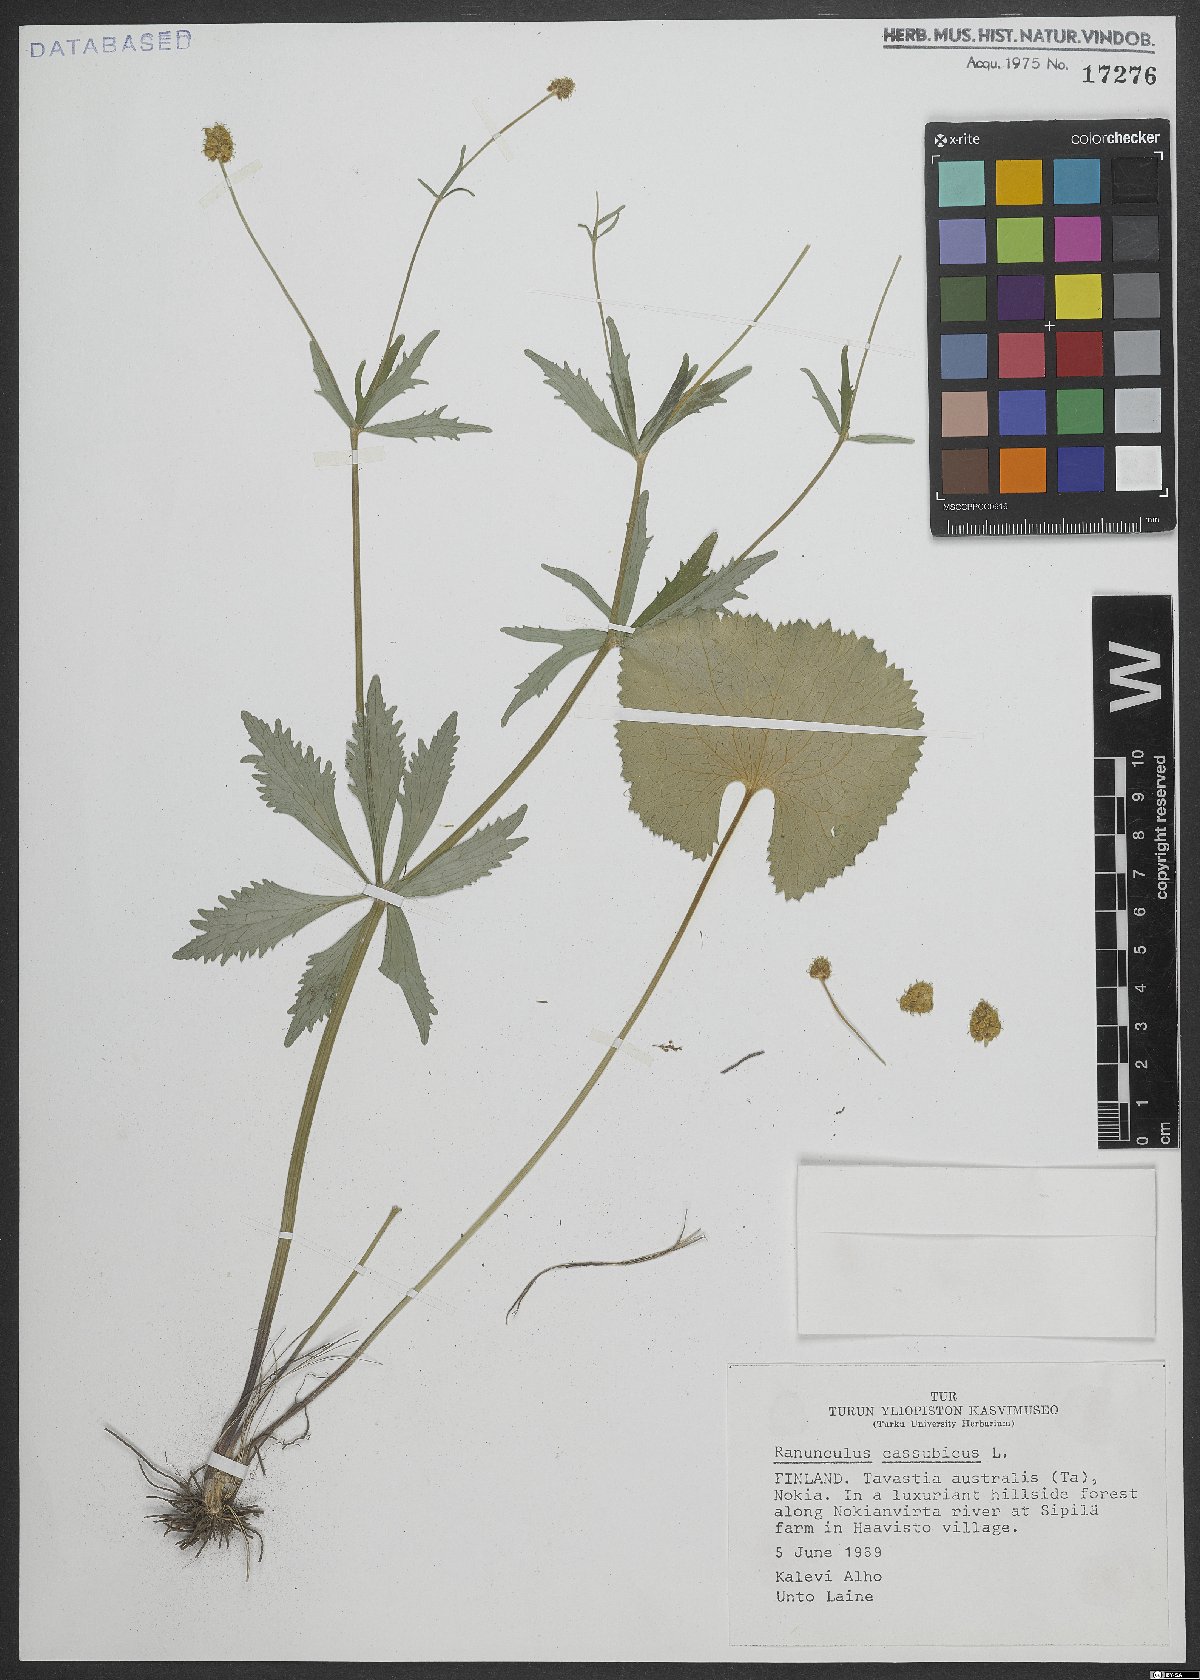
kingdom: Plantae
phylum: Tracheophyta
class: Magnoliopsida
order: Ranunculales
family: Ranunculaceae
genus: Ranunculus
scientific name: Ranunculus cassubicus
